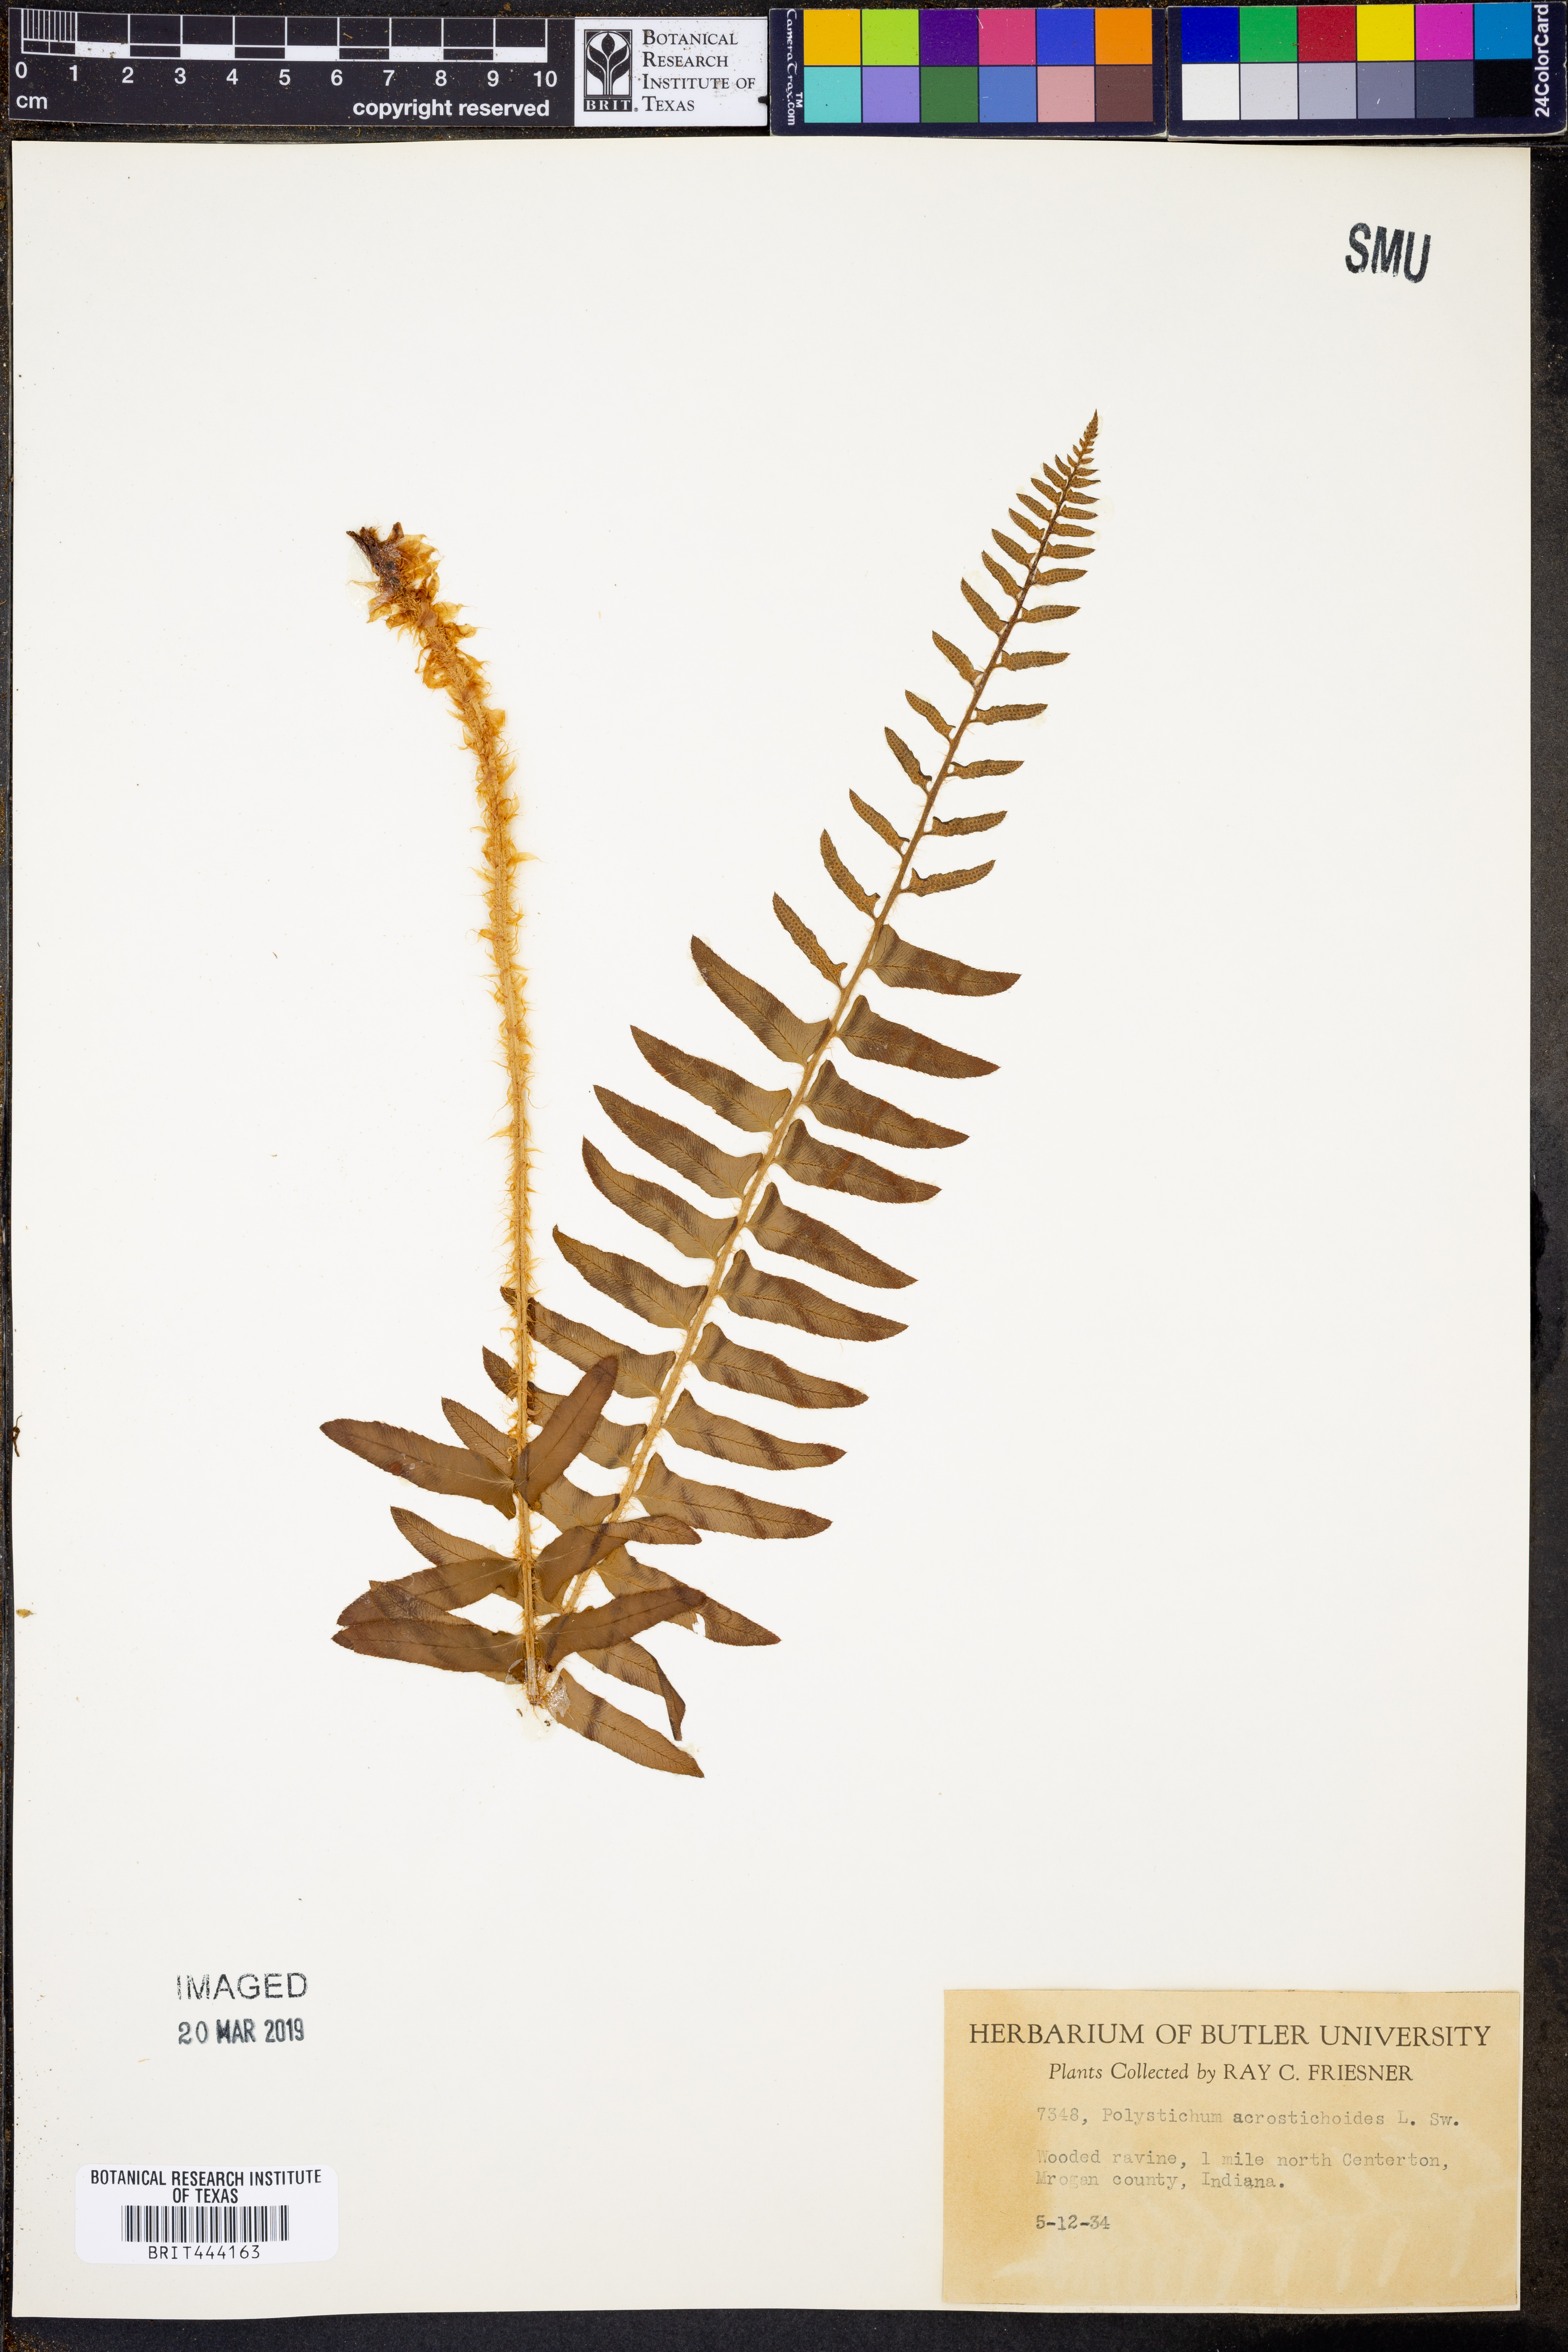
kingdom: Plantae
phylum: Tracheophyta
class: Polypodiopsida
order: Polypodiales
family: Dryopteridaceae
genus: Polystichum
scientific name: Polystichum acrostichoides
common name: Christmas fern
